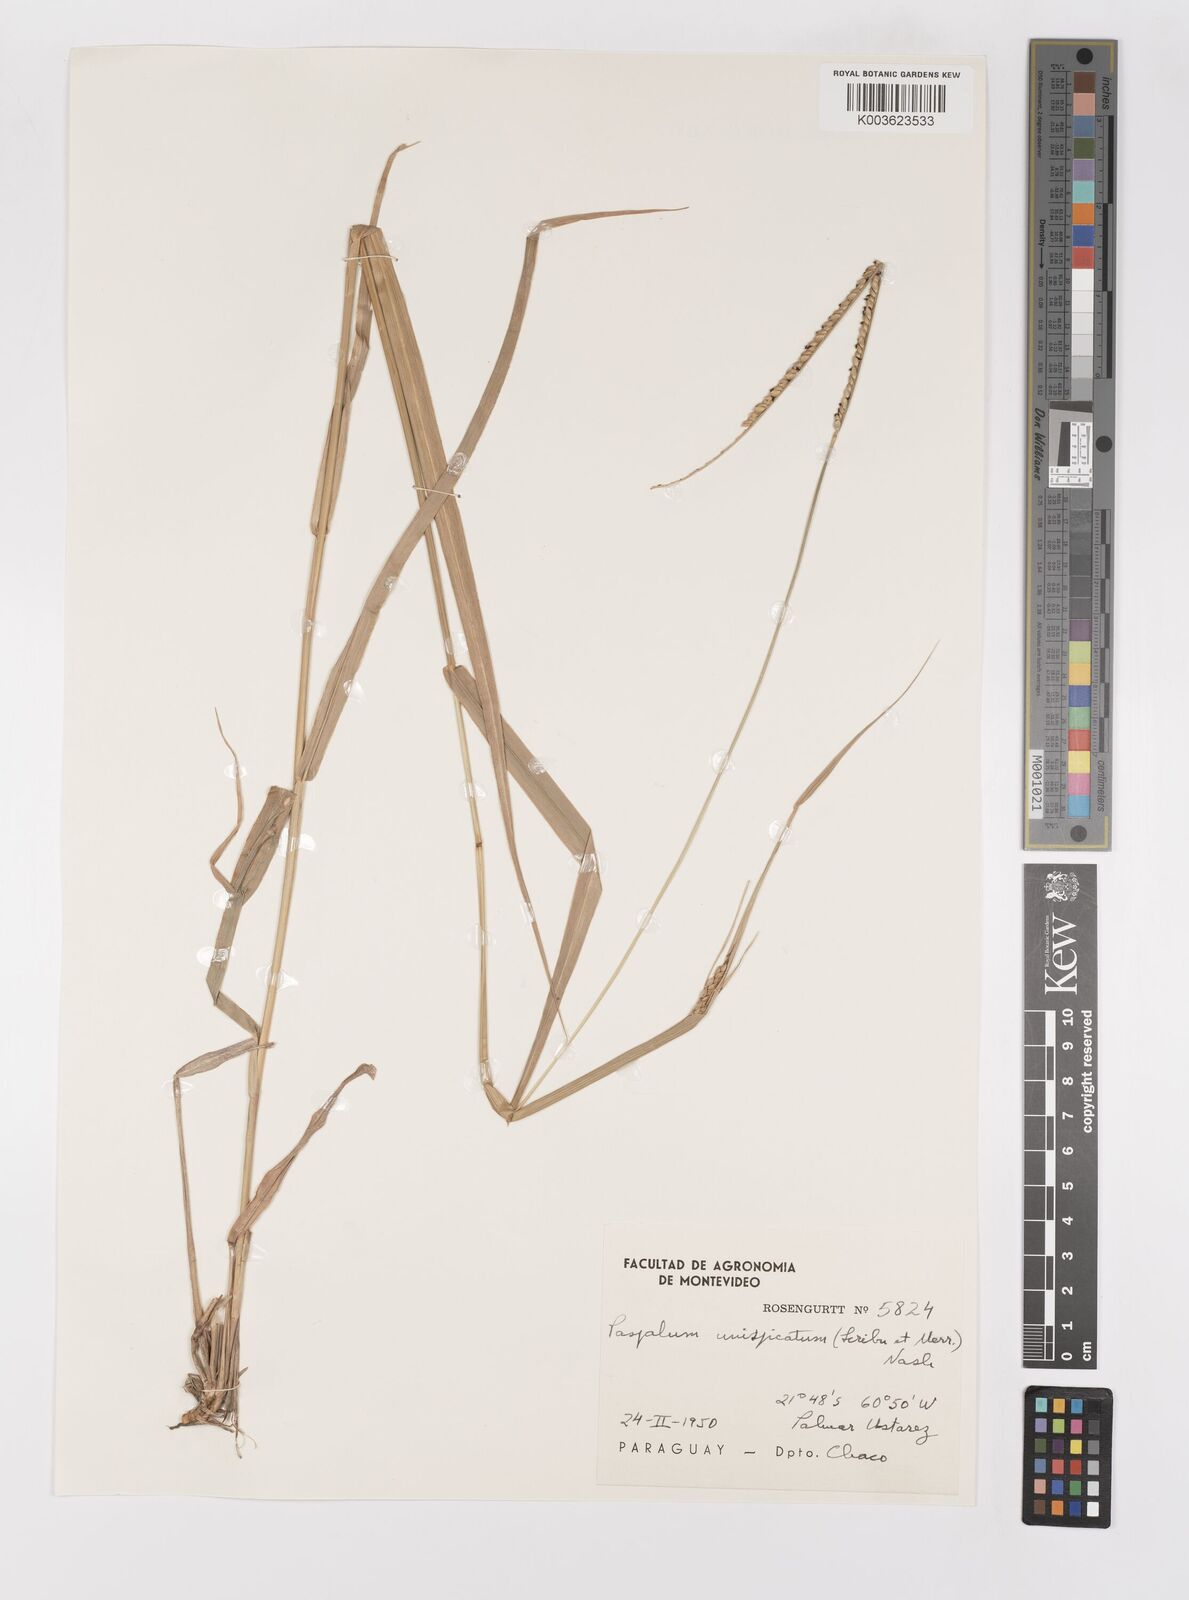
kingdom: Plantae
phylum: Tracheophyta
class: Liliopsida
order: Poales
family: Poaceae
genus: Paspalum
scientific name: Paspalum candidum
